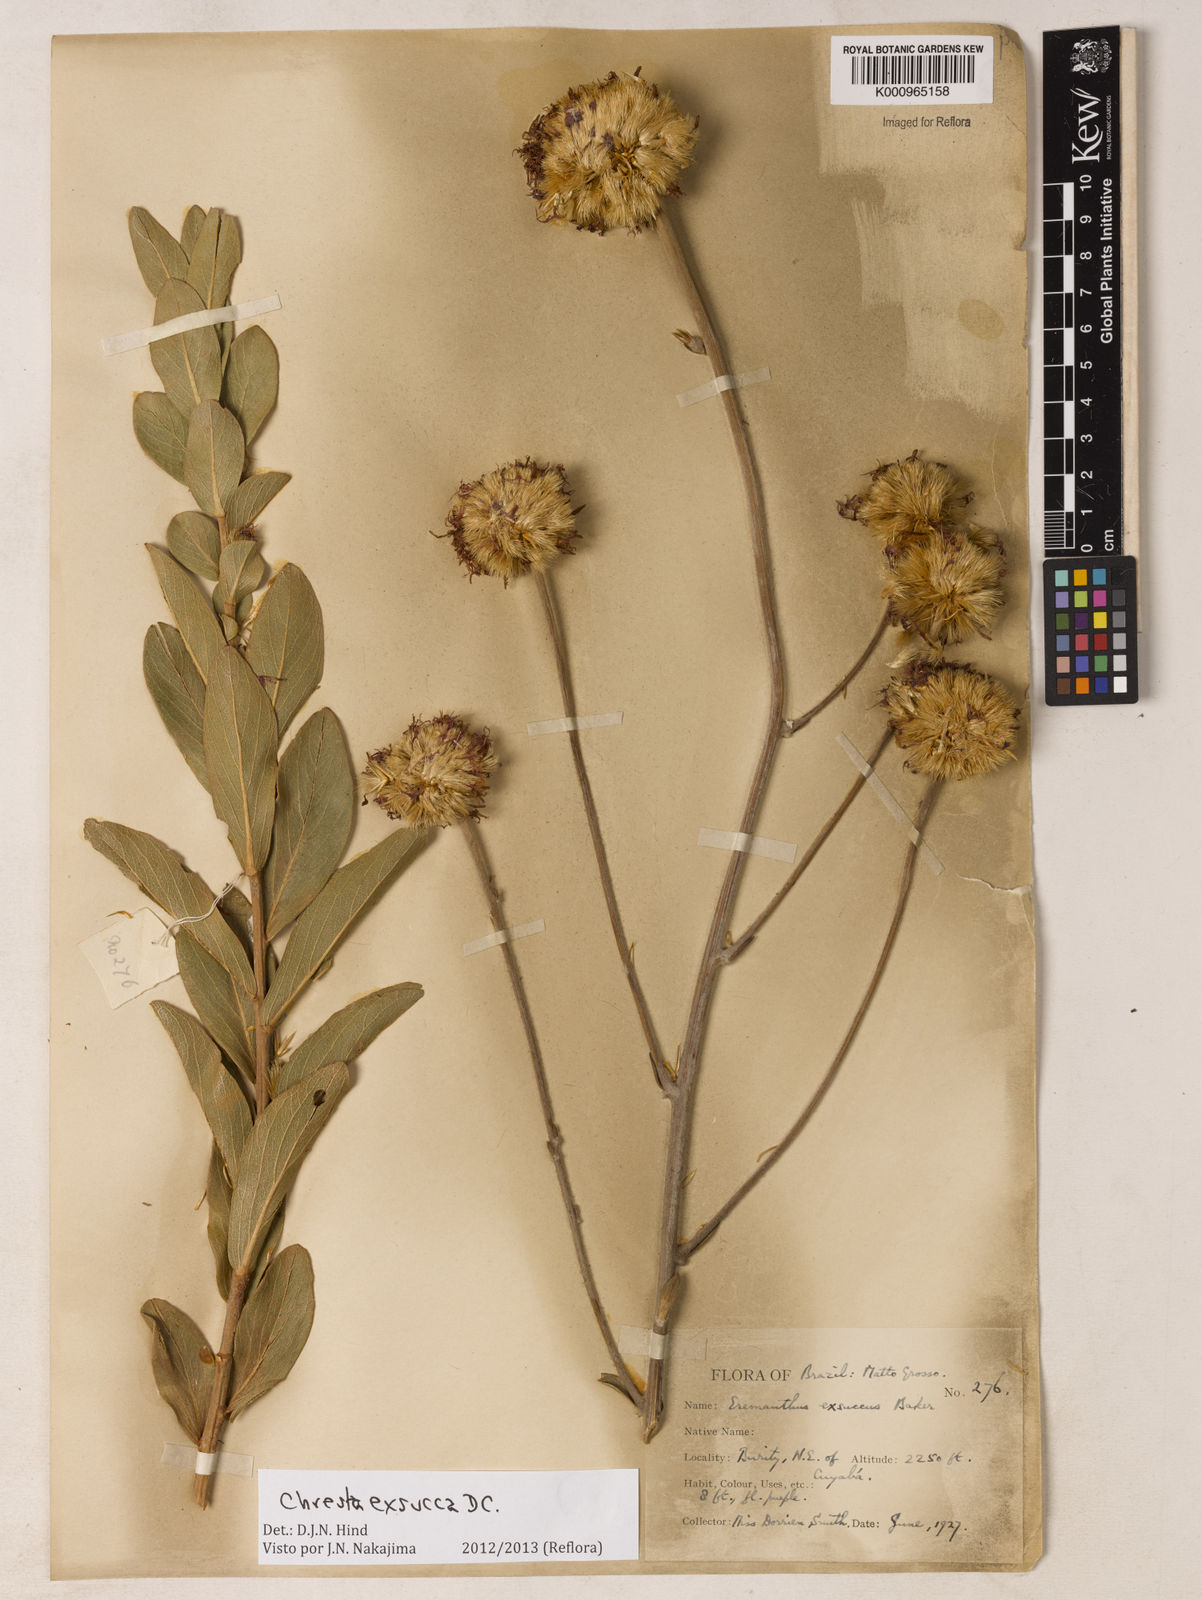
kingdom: Plantae
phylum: Tracheophyta
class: Magnoliopsida
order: Asterales
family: Asteraceae
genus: Chresta
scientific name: Chresta exsucca
